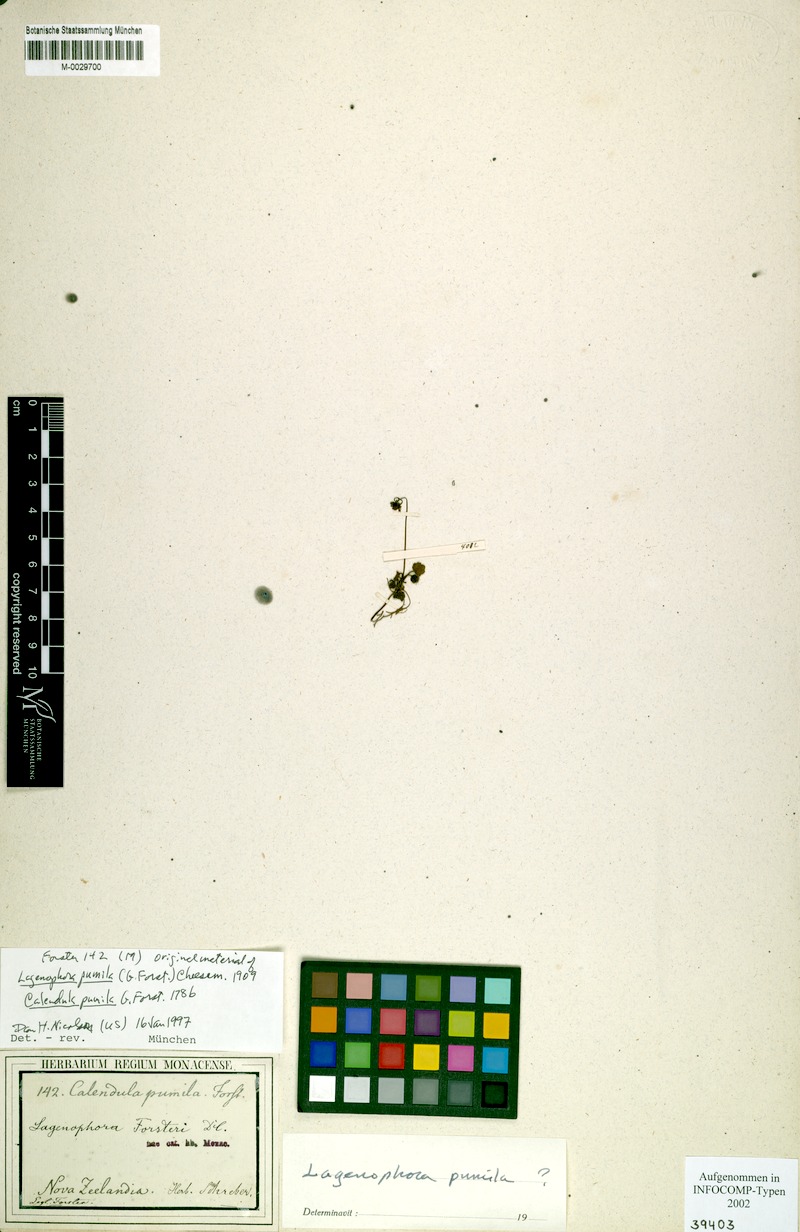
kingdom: Plantae
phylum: Tracheophyta
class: Magnoliopsida
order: Asterales
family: Asteraceae
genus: Lagenophora
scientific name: Lagenophora pumila
